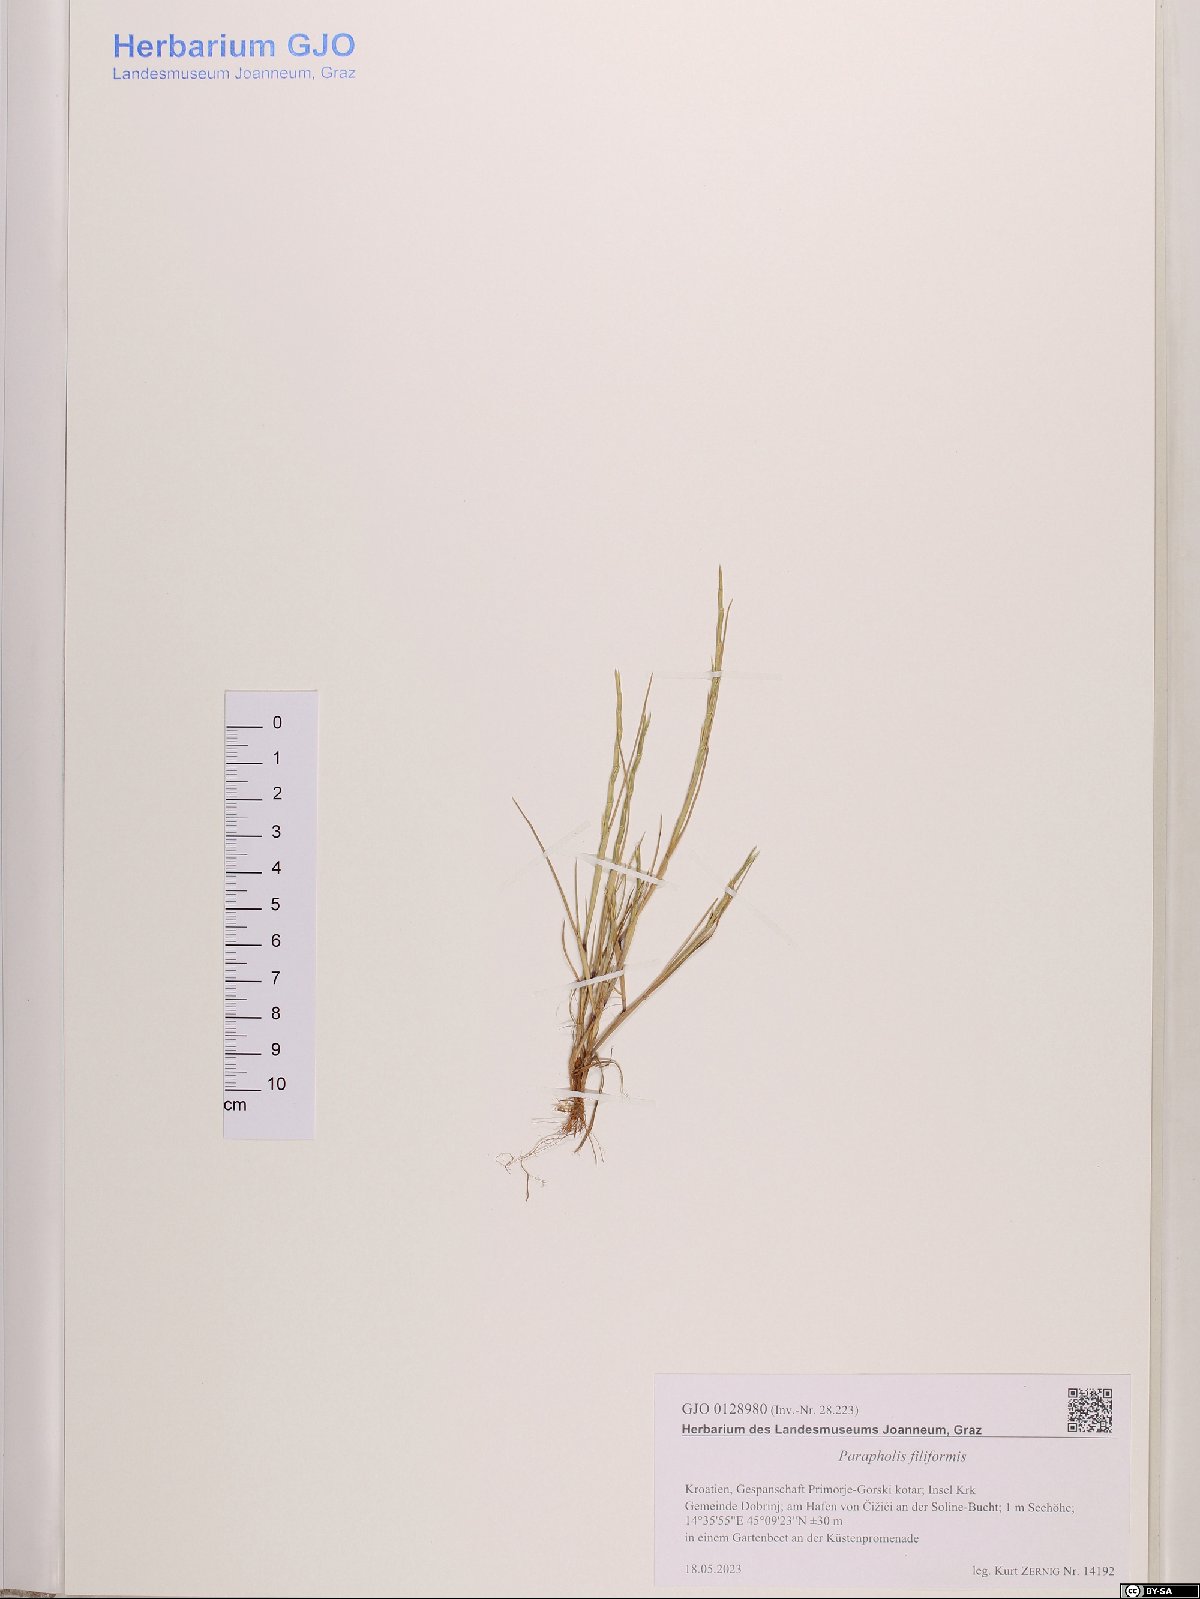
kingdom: Plantae
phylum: Tracheophyta
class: Liliopsida
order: Poales
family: Poaceae
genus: Parapholis
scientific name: Parapholis filiformis
